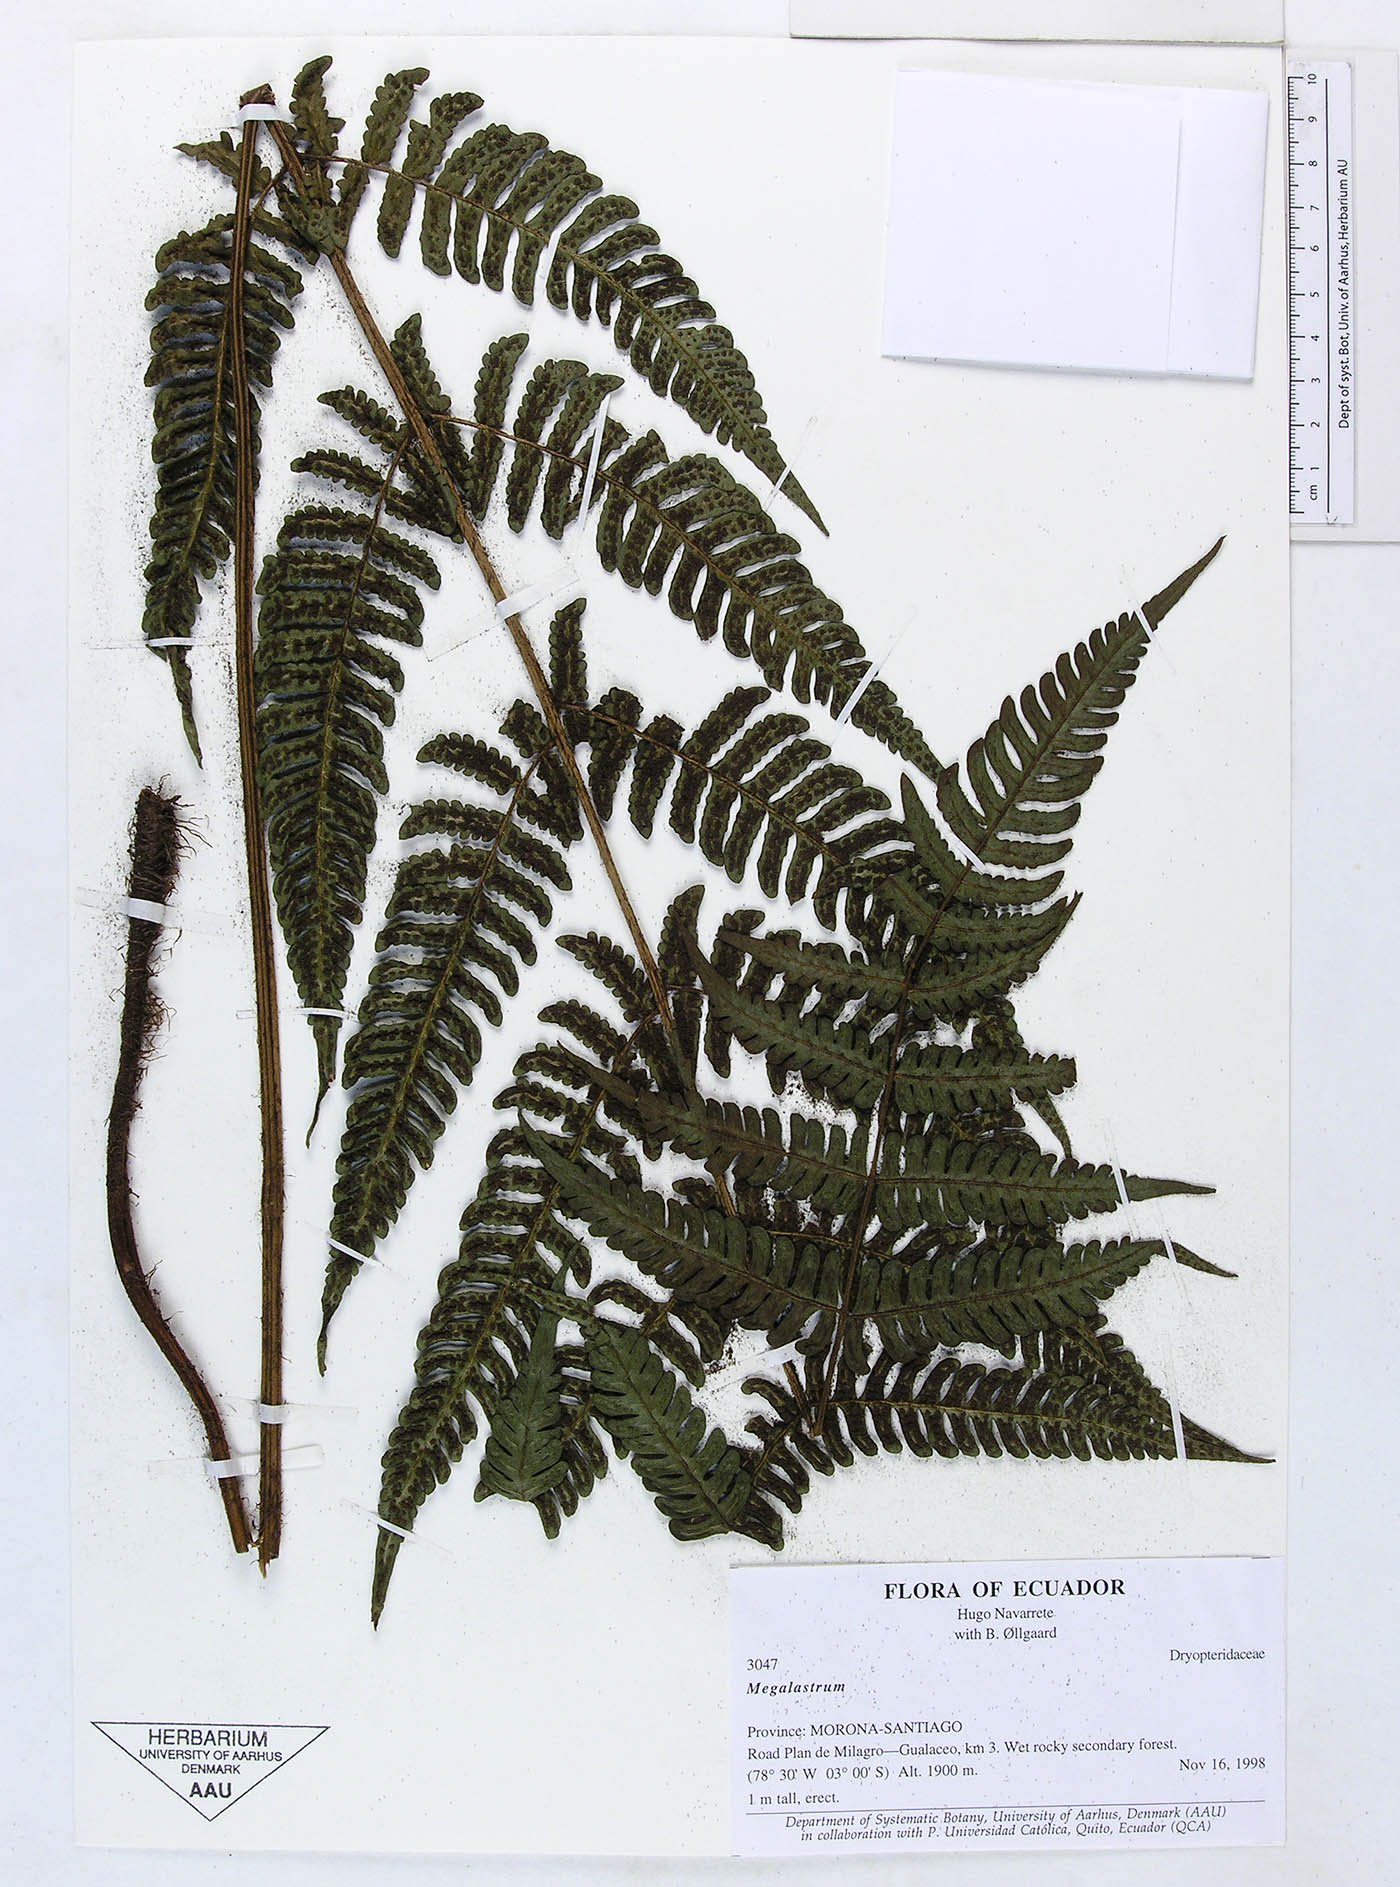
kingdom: Plantae
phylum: Tracheophyta
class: Polypodiopsida
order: Polypodiales
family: Dryopteridaceae
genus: Megalastrum
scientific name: Megalastrum biseriale
